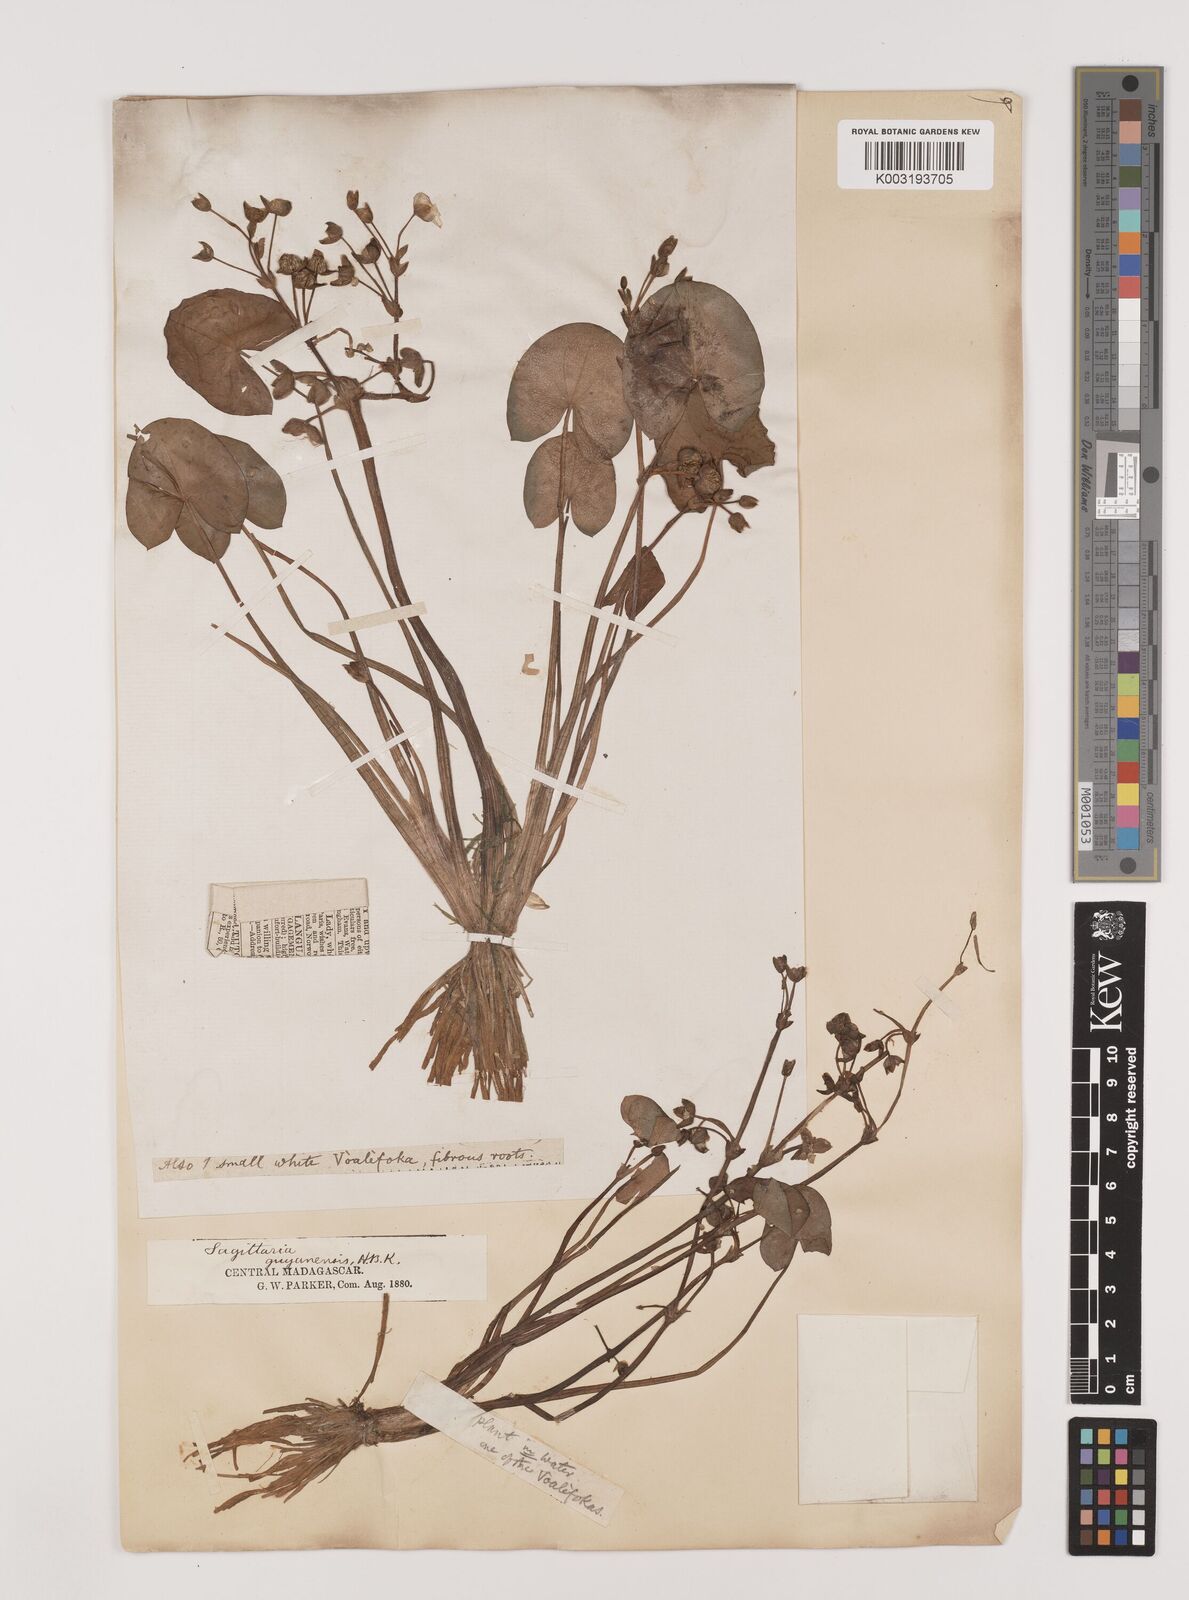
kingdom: Plantae
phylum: Tracheophyta
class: Liliopsida
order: Alismatales
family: Alismataceae
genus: Sagittaria
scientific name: Sagittaria guayanensis
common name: Guyanese arrowhead
